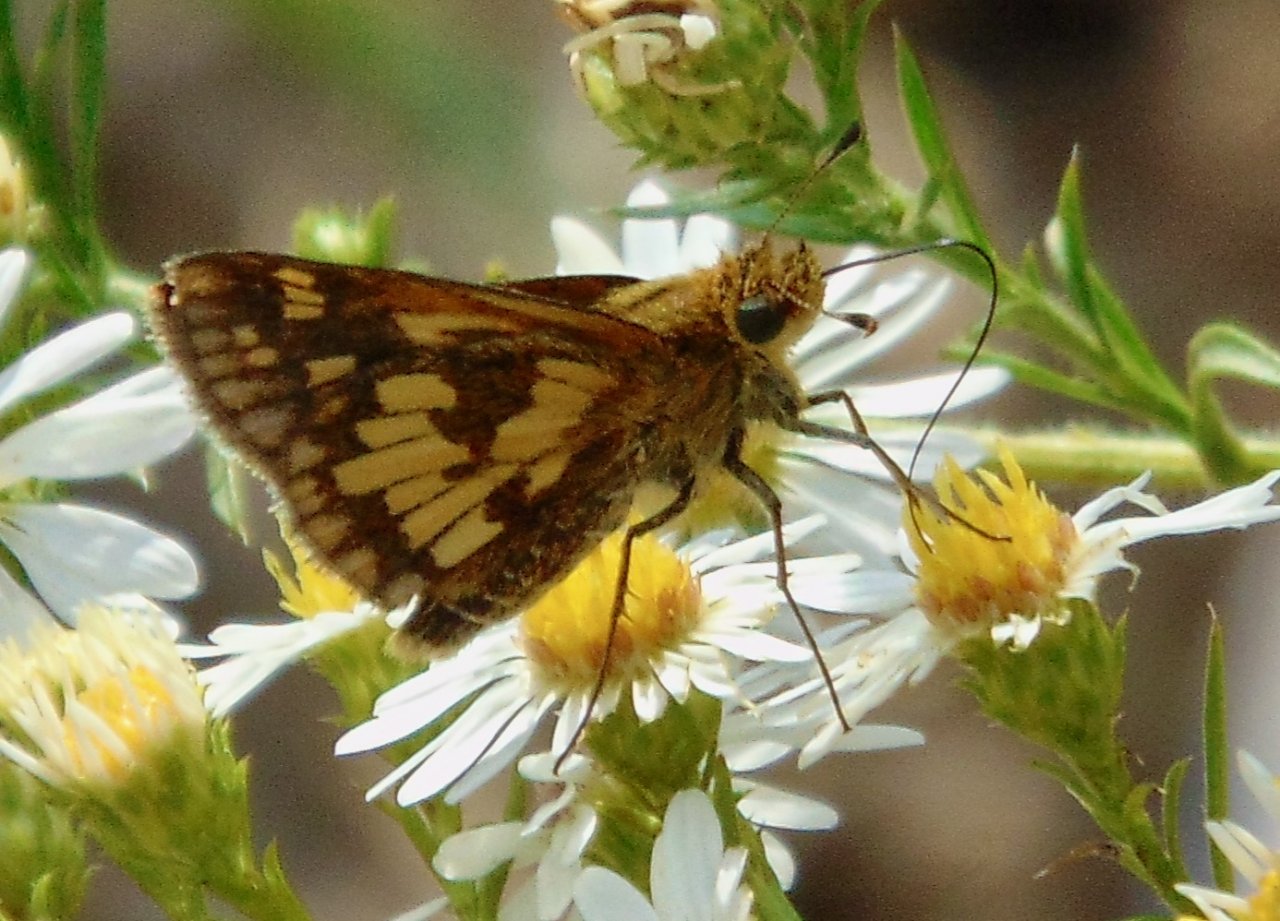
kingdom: Animalia
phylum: Arthropoda
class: Insecta
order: Lepidoptera
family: Hesperiidae
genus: Polites
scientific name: Polites coras
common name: Peck's Skipper
